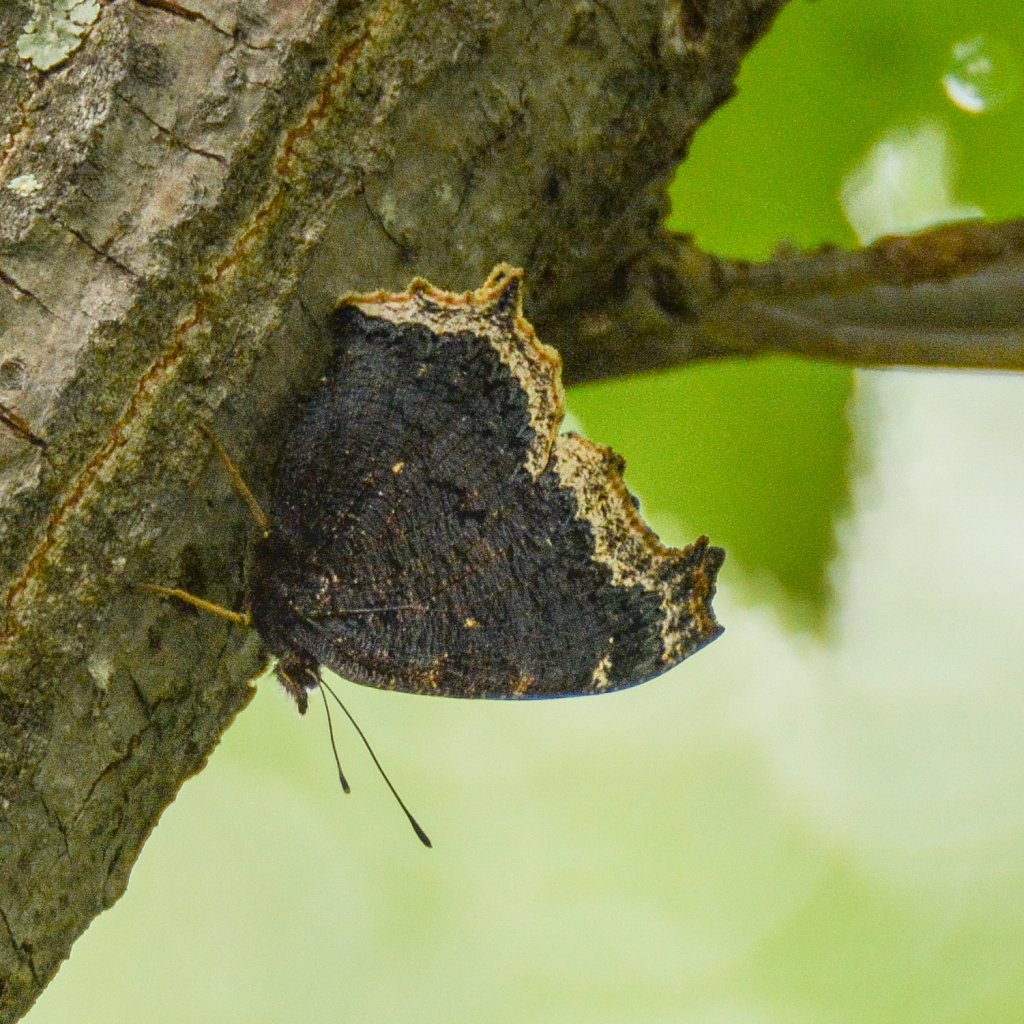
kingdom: Animalia
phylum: Arthropoda
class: Insecta
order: Lepidoptera
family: Nymphalidae
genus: Nymphalis
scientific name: Nymphalis antiopa
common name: Mourning Cloak
